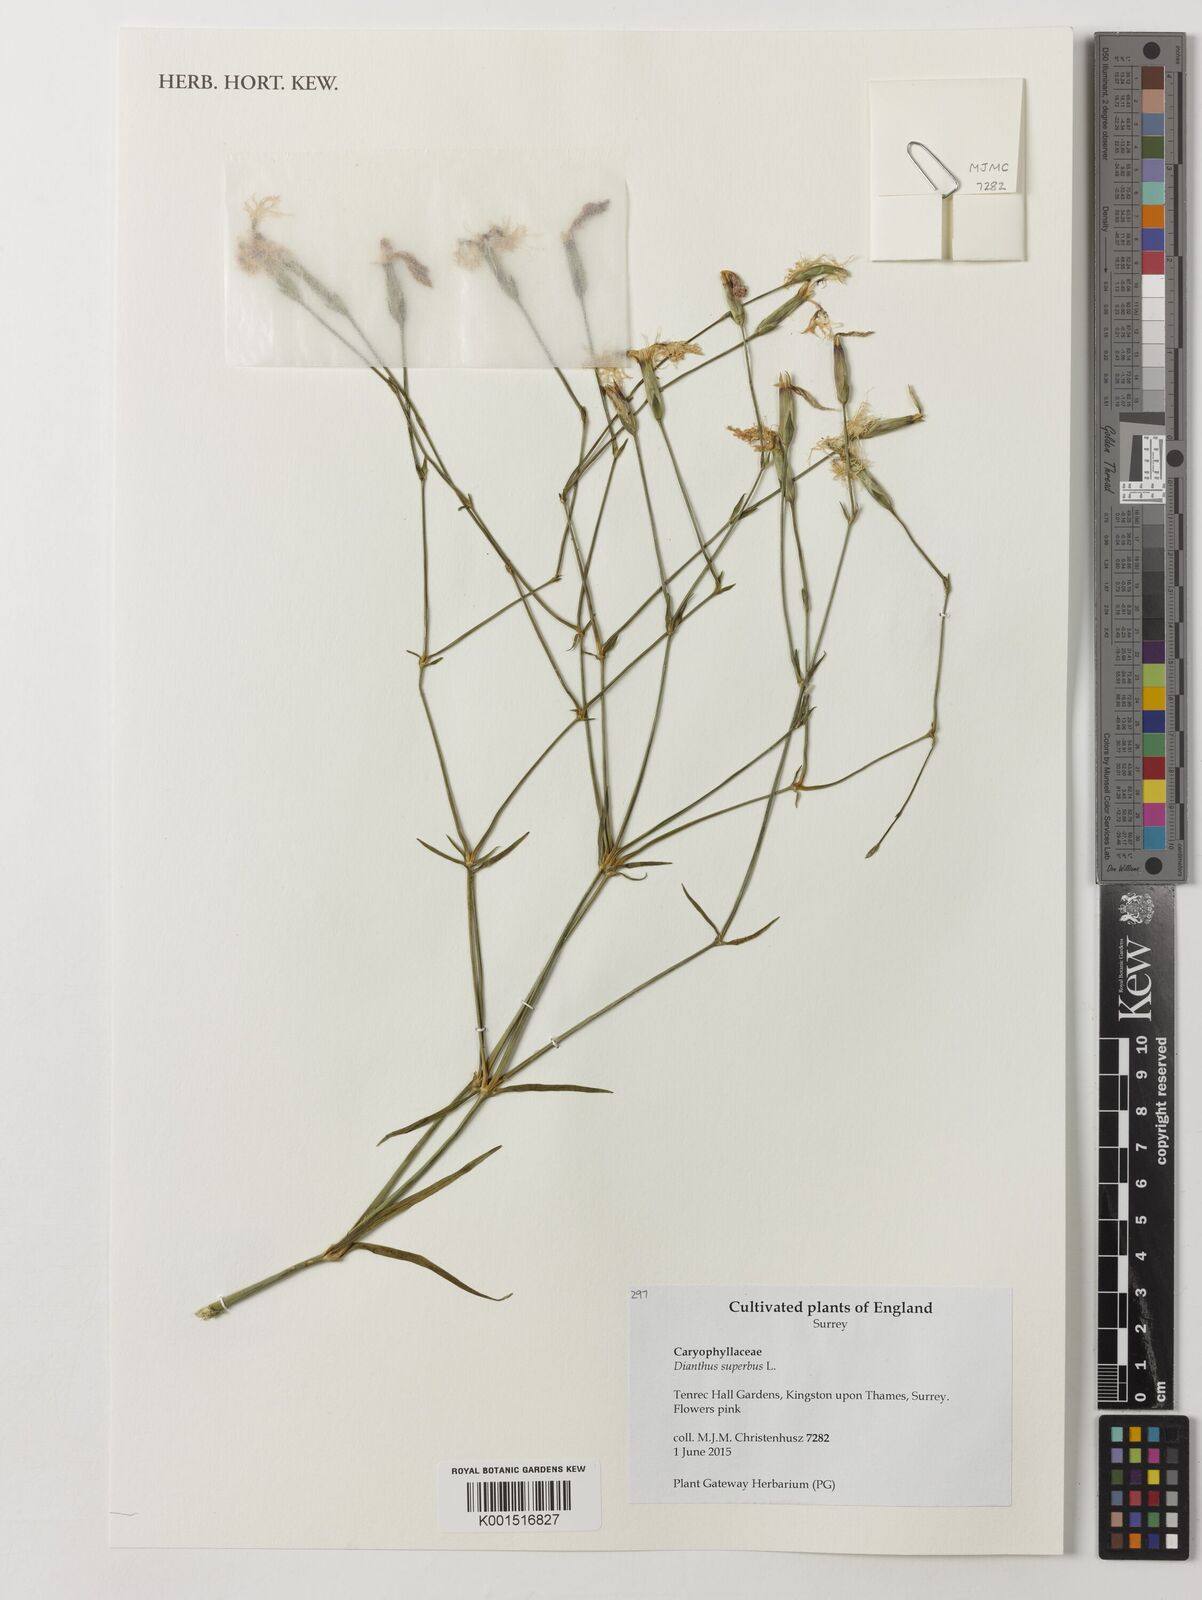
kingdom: Plantae
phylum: Tracheophyta
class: Magnoliopsida
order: Caryophyllales
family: Caryophyllaceae
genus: Dianthus
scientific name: Dianthus superbus
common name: Fringed pink
